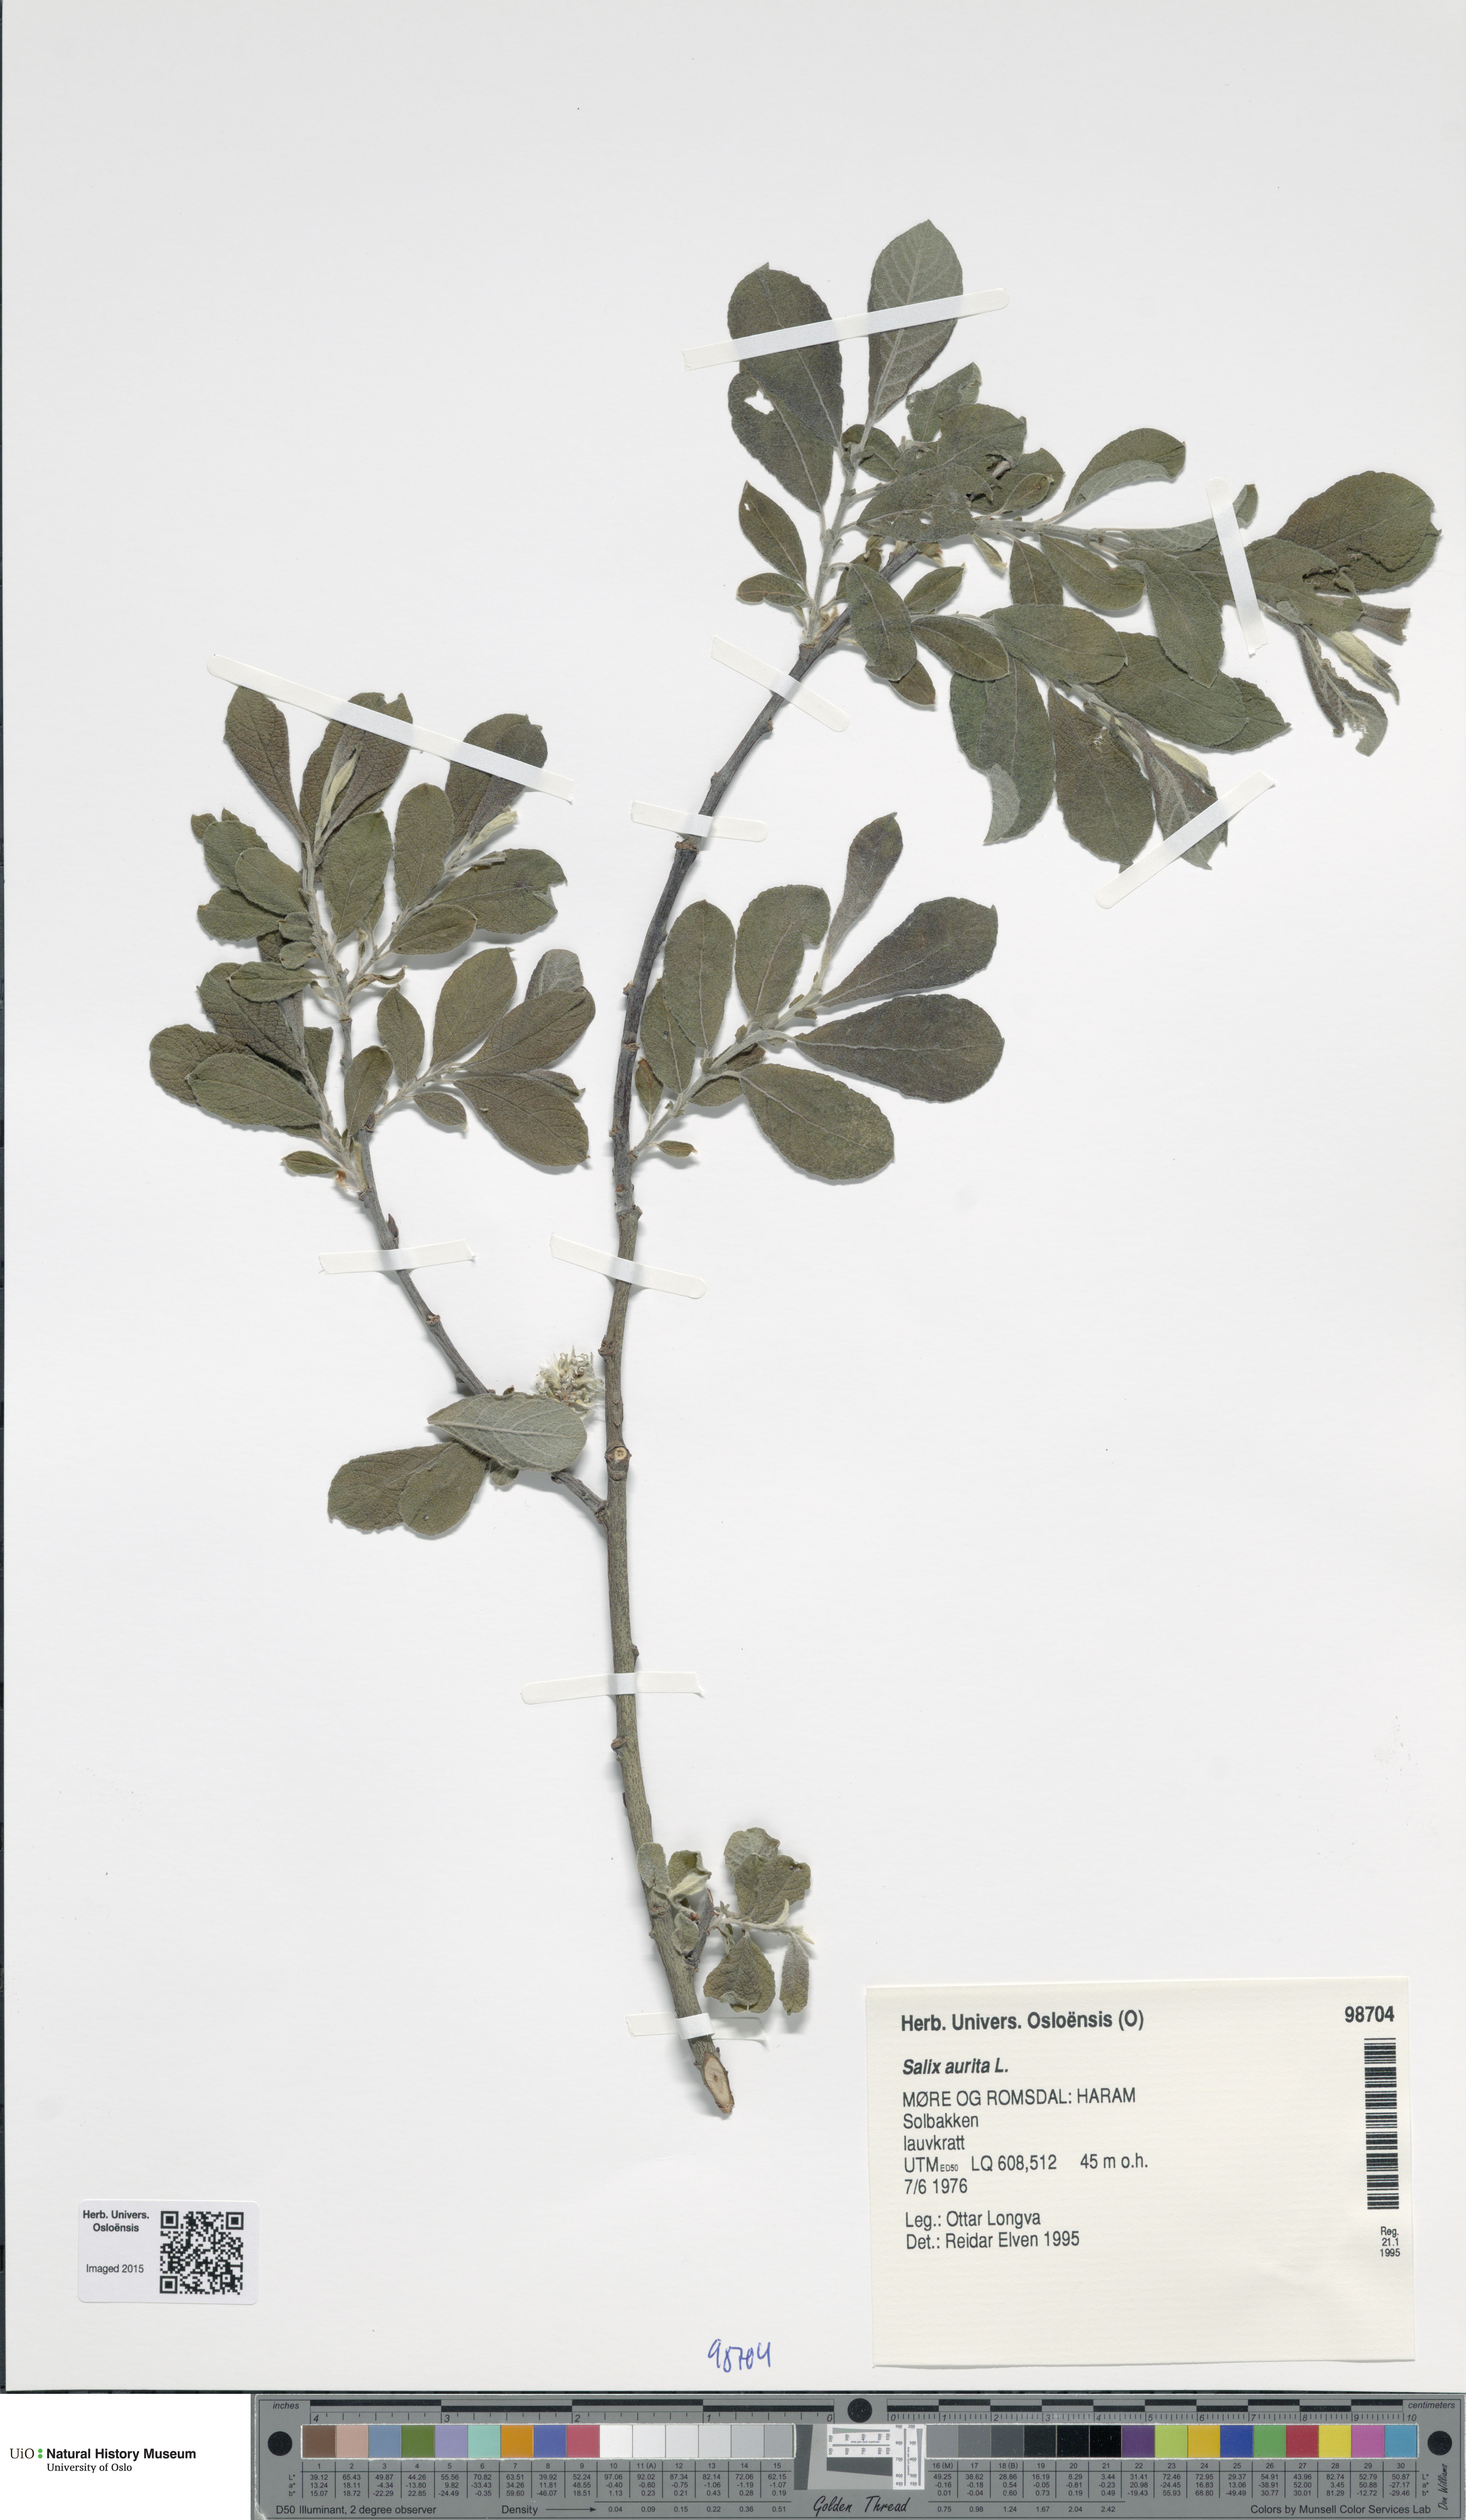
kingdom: Plantae
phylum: Tracheophyta
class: Magnoliopsida
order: Malpighiales
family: Salicaceae
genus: Salix
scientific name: Salix aurita
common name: Eared willow
